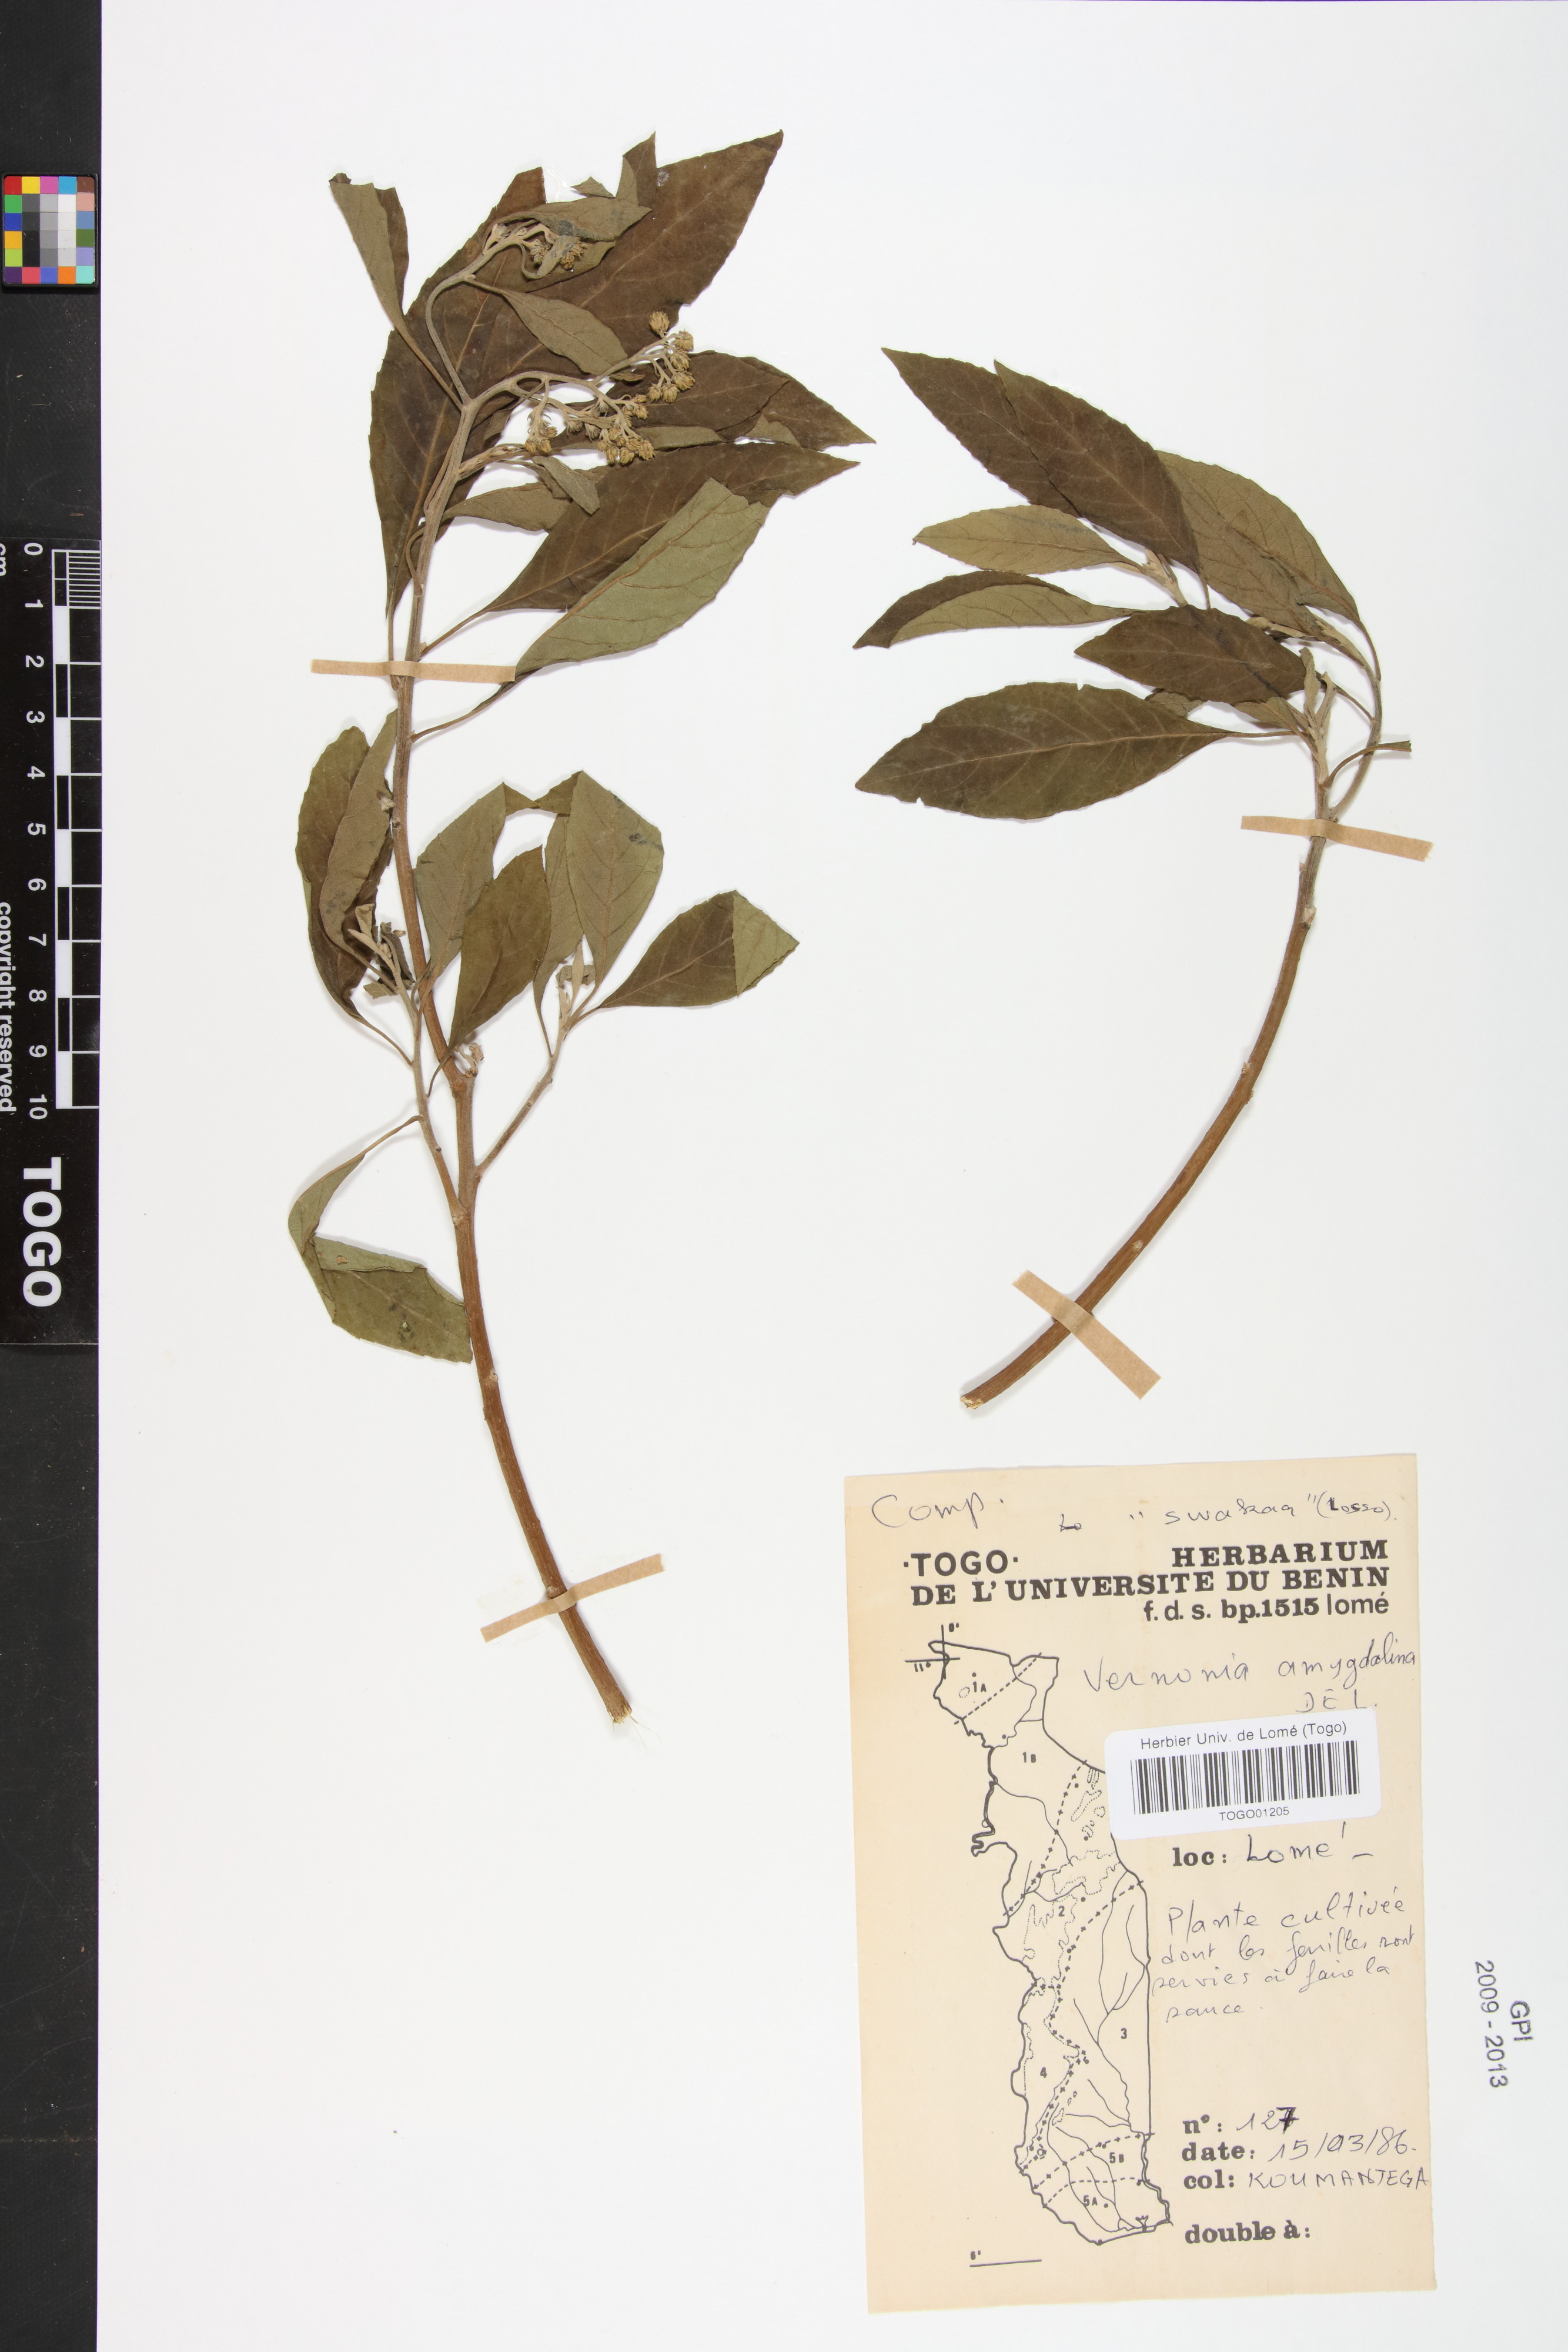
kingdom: Plantae
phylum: Tracheophyta
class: Magnoliopsida
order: Asterales
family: Asteraceae
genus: Gymnanthemum
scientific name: Gymnanthemum amygdalinum
